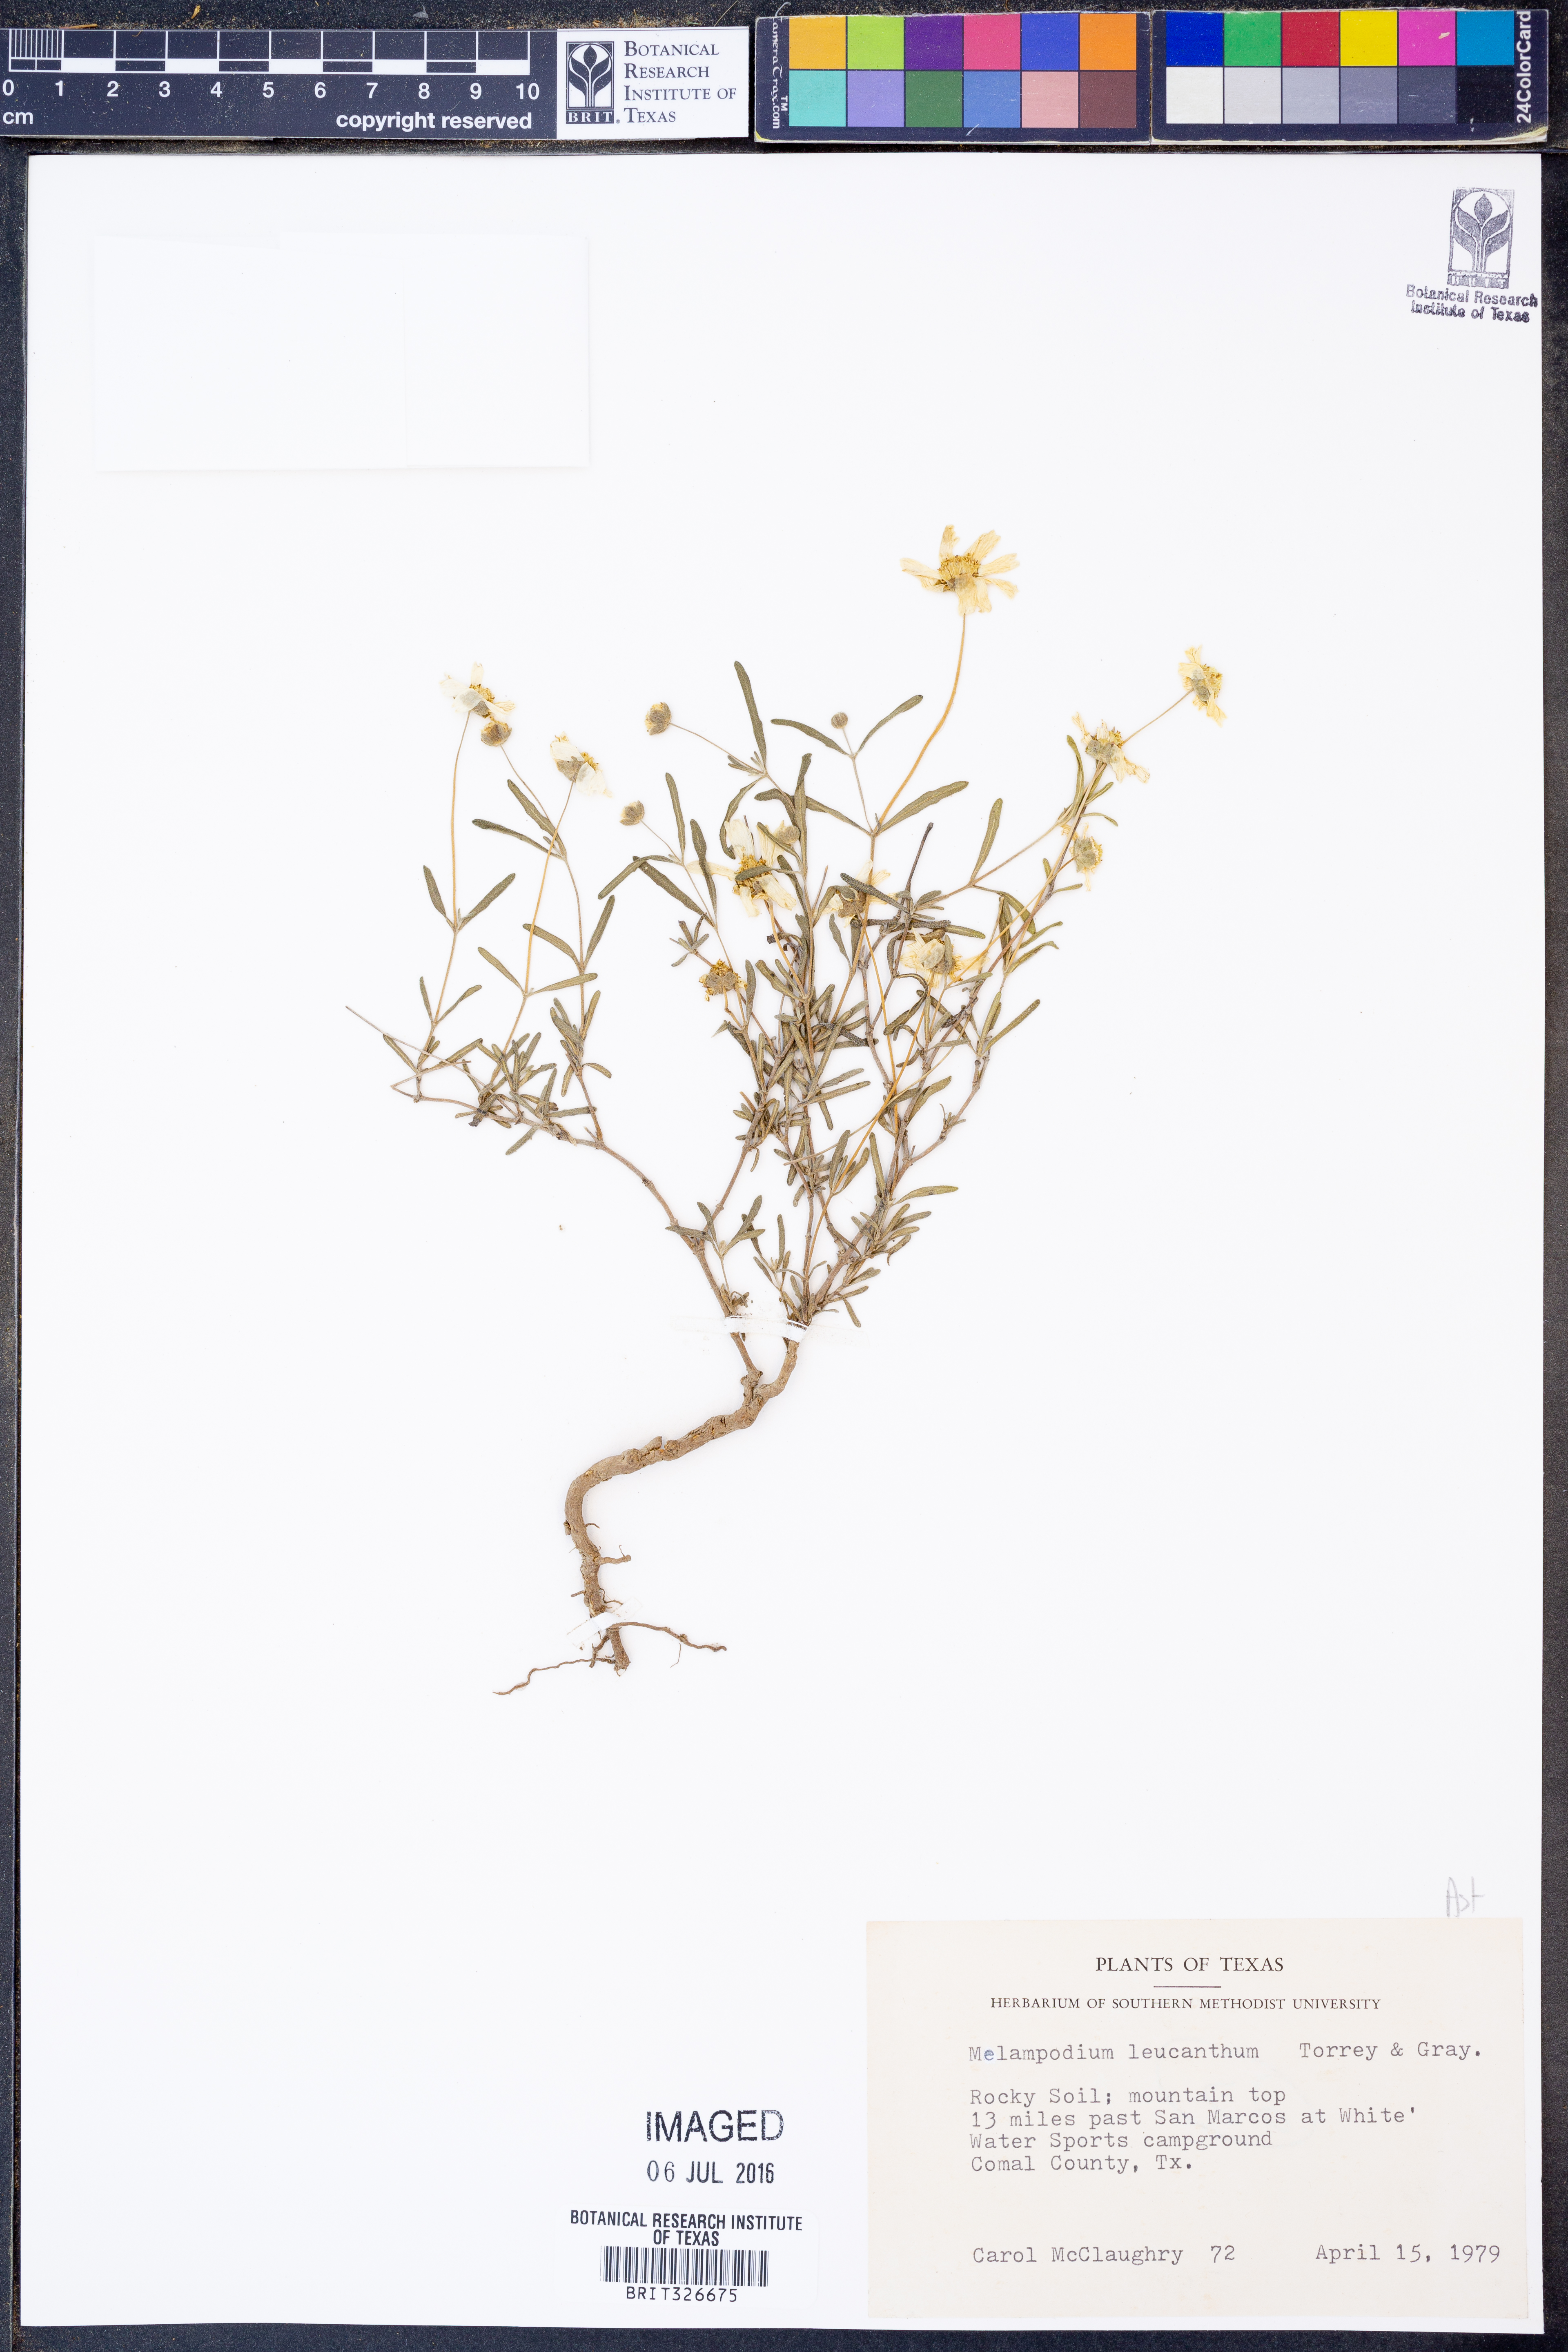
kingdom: Plantae
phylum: Tracheophyta
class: Magnoliopsida
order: Asterales
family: Asteraceae
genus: Melampodium
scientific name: Melampodium leucanthum
